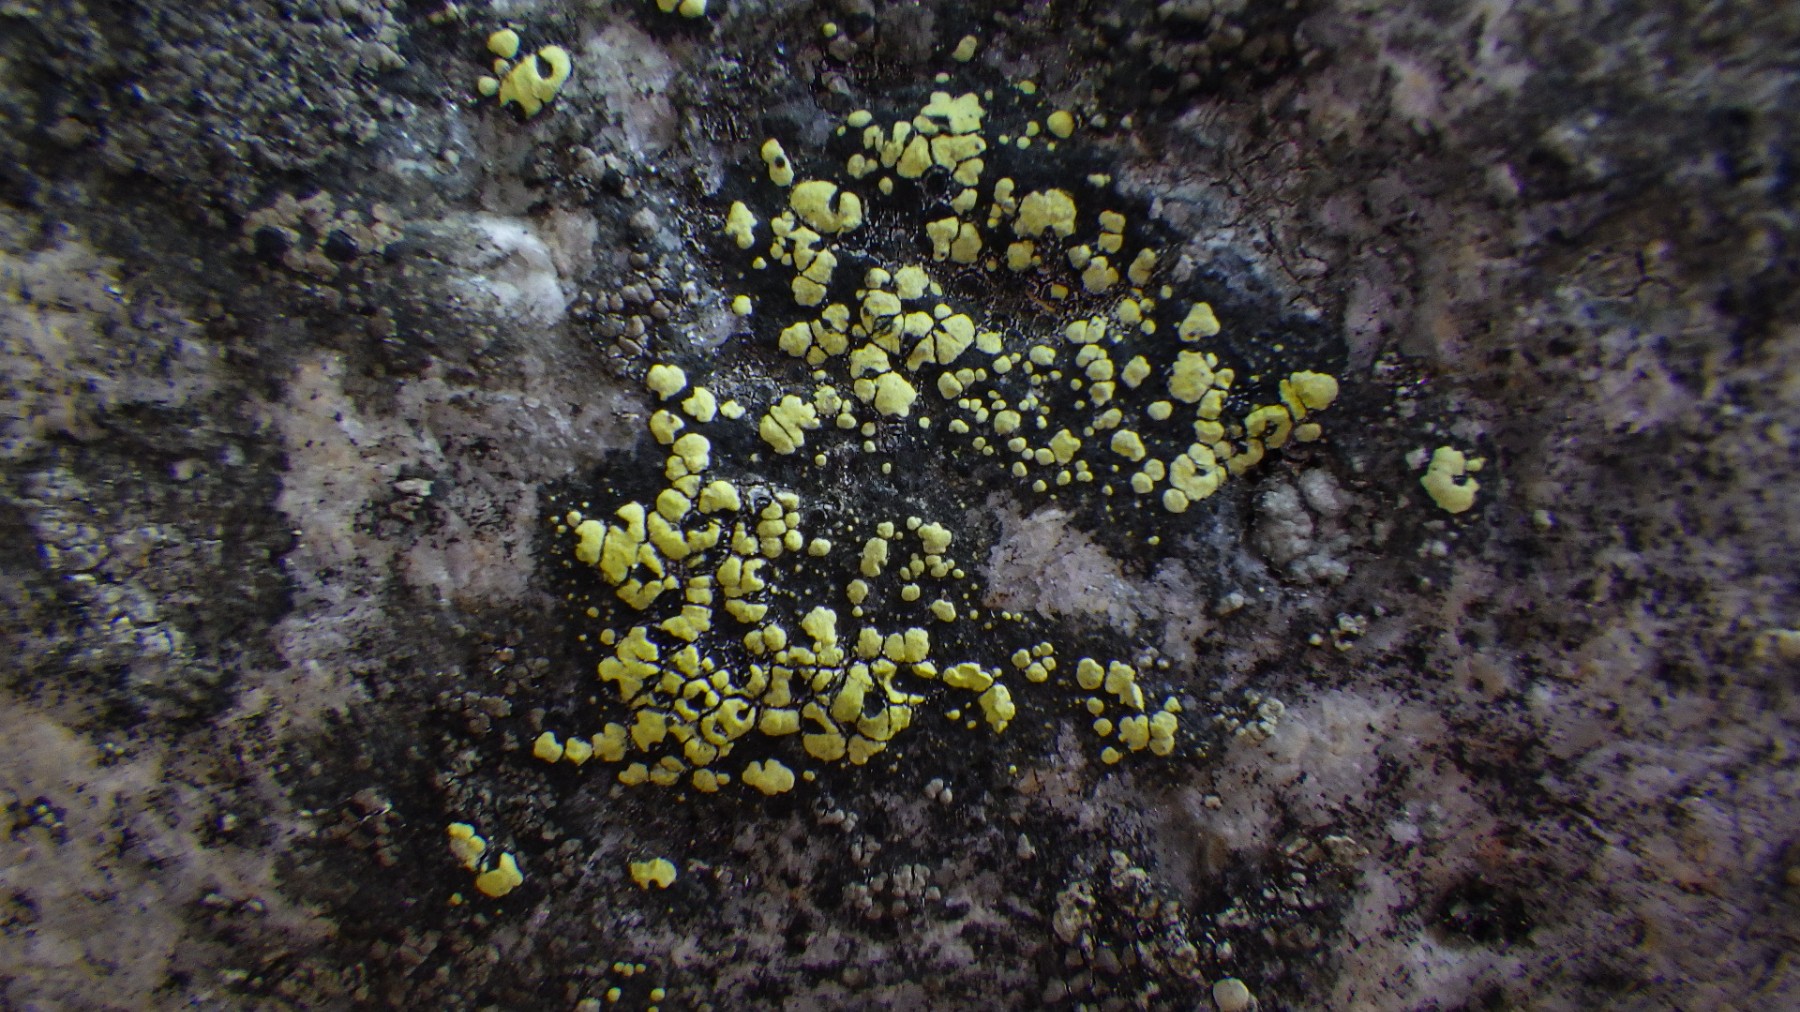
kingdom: Fungi
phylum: Ascomycota
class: Lecanoromycetes
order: Rhizocarpales
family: Rhizocarpaceae
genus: Rhizocarpon
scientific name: Rhizocarpon lecanorinum
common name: krave-landkortlav
